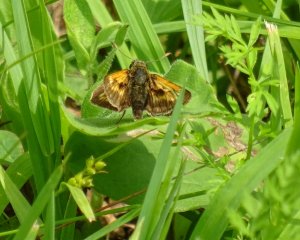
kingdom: Animalia
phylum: Arthropoda
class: Insecta
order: Lepidoptera
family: Hesperiidae
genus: Polites
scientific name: Polites
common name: Long Dash Skipper
